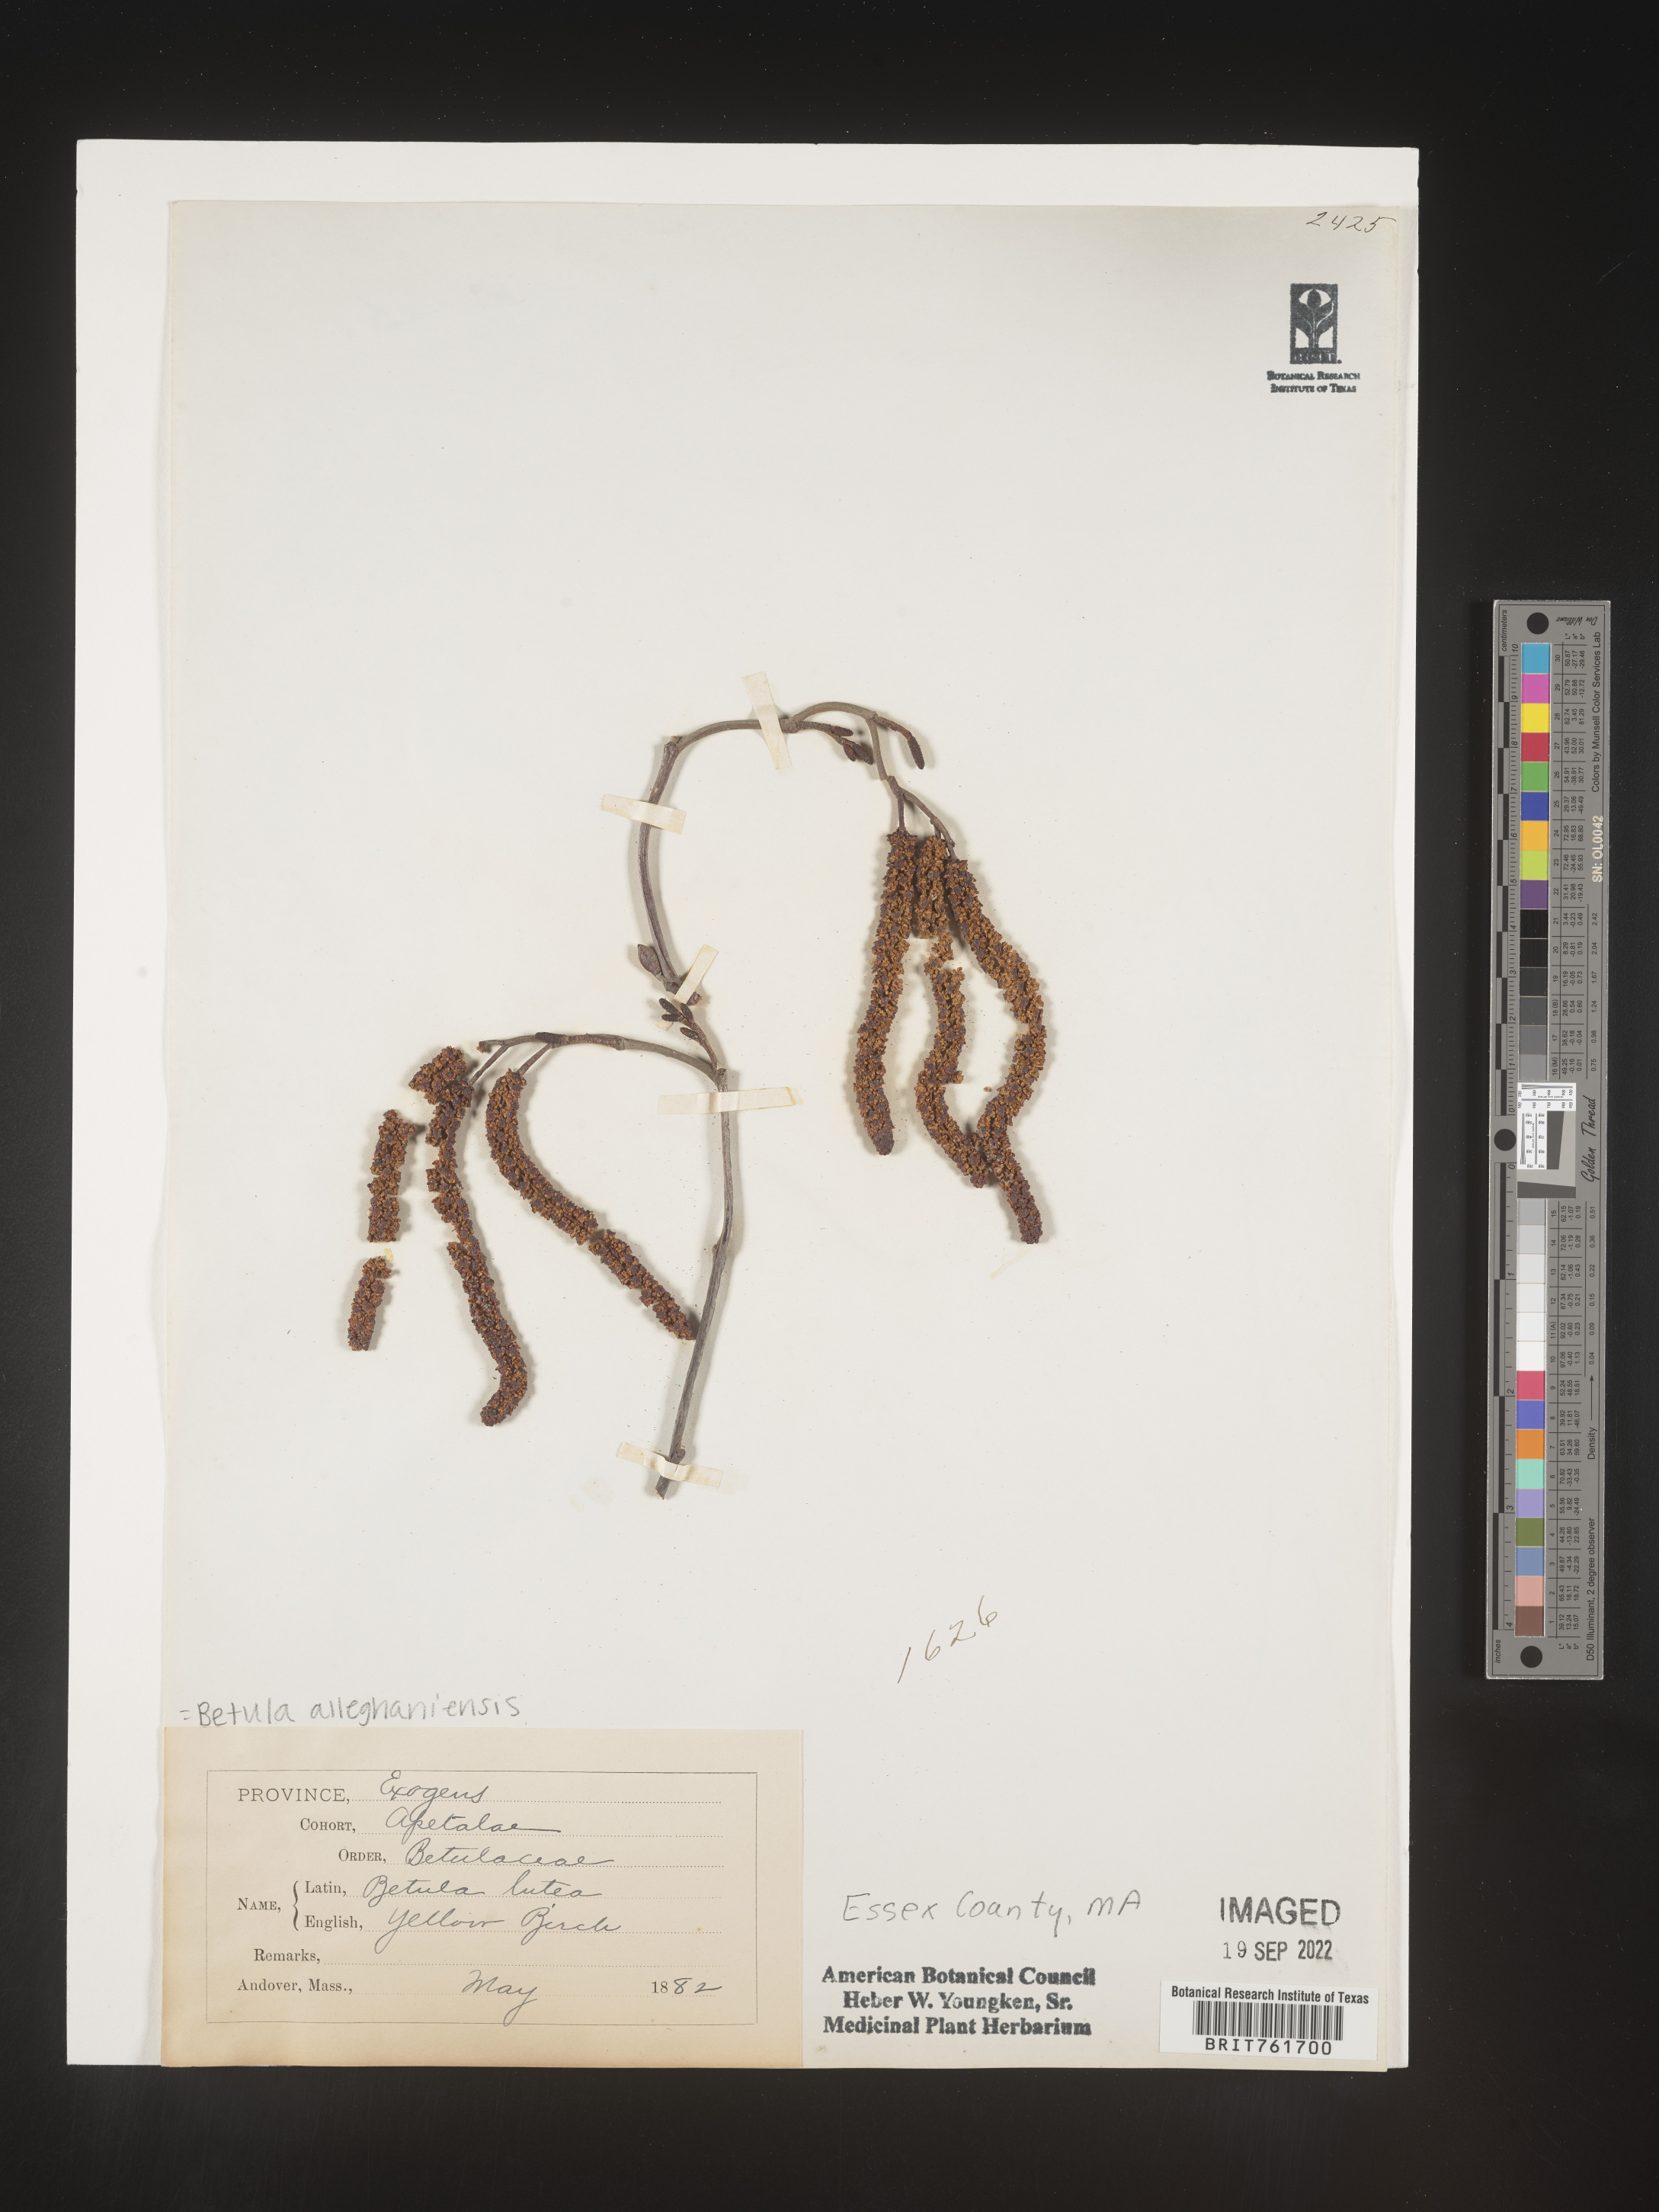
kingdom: Plantae
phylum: Tracheophyta
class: Magnoliopsida
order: Fagales
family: Betulaceae
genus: Betula
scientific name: Betula alleghaniensis
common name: Yellow birch
